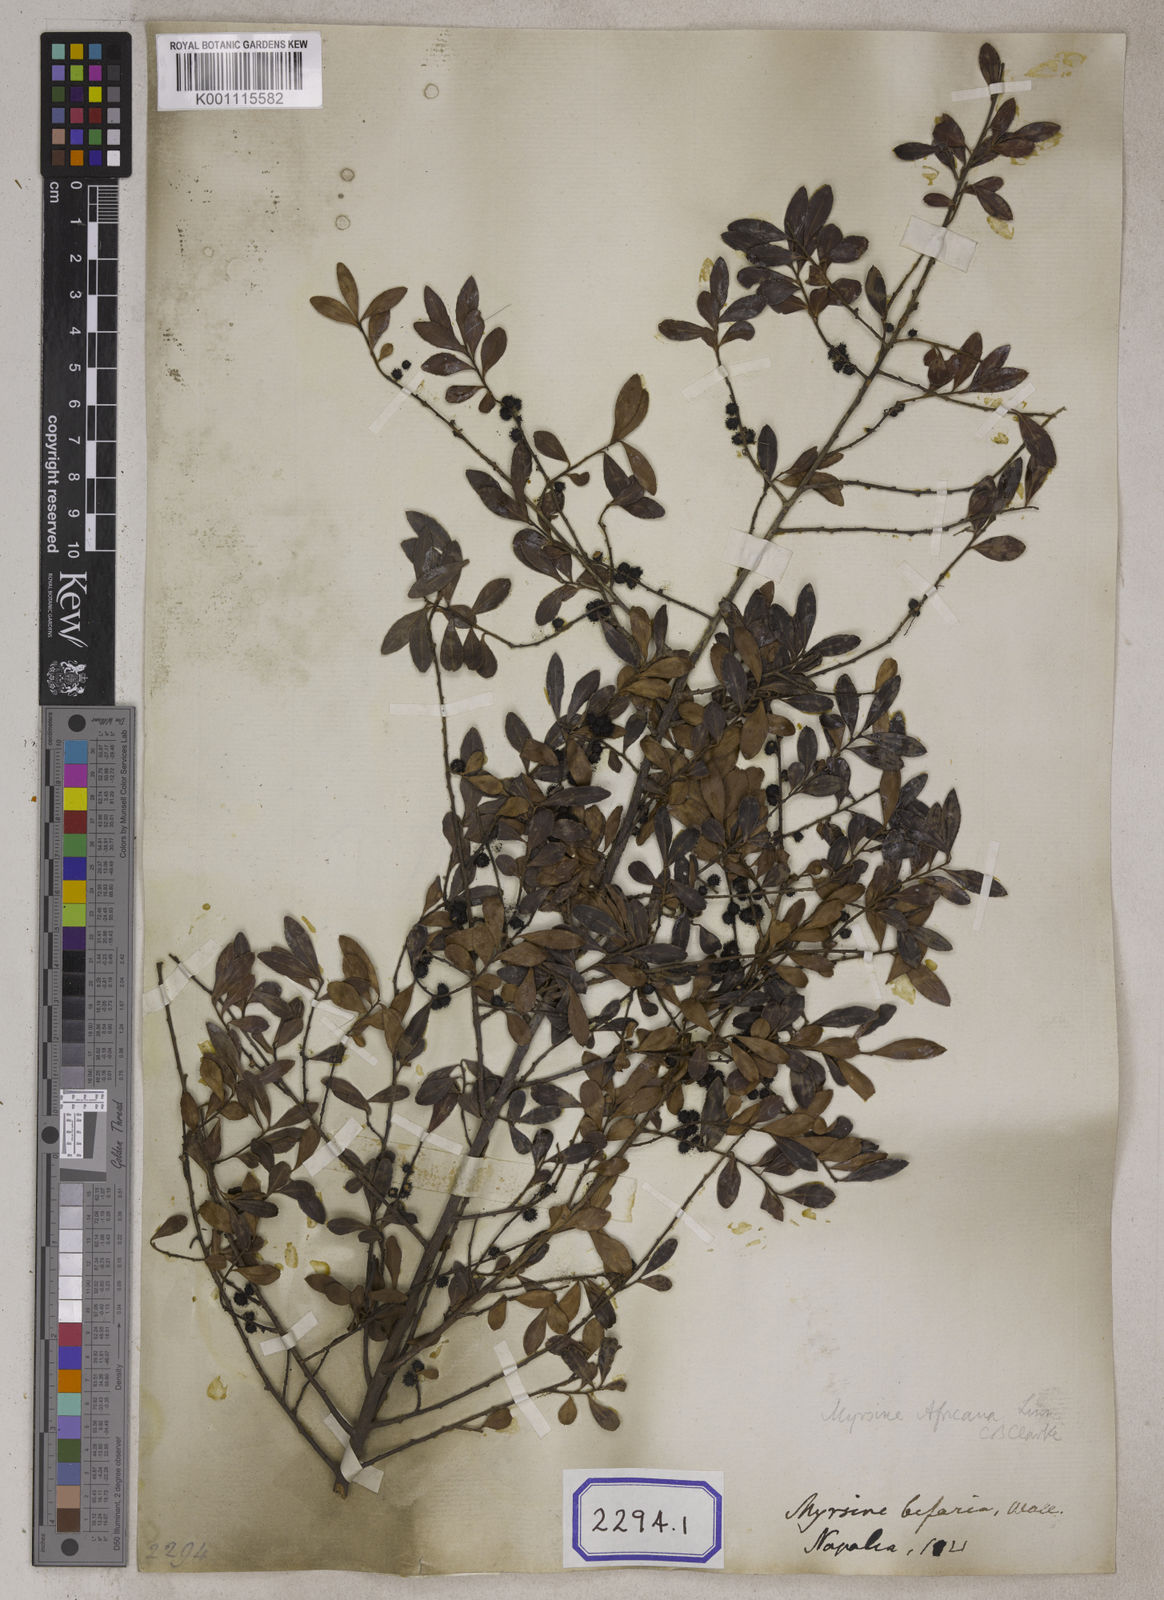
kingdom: Plantae
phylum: Tracheophyta
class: Magnoliopsida
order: Ericales
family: Primulaceae
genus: Myrsine
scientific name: Myrsine africana
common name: African-boxwood
